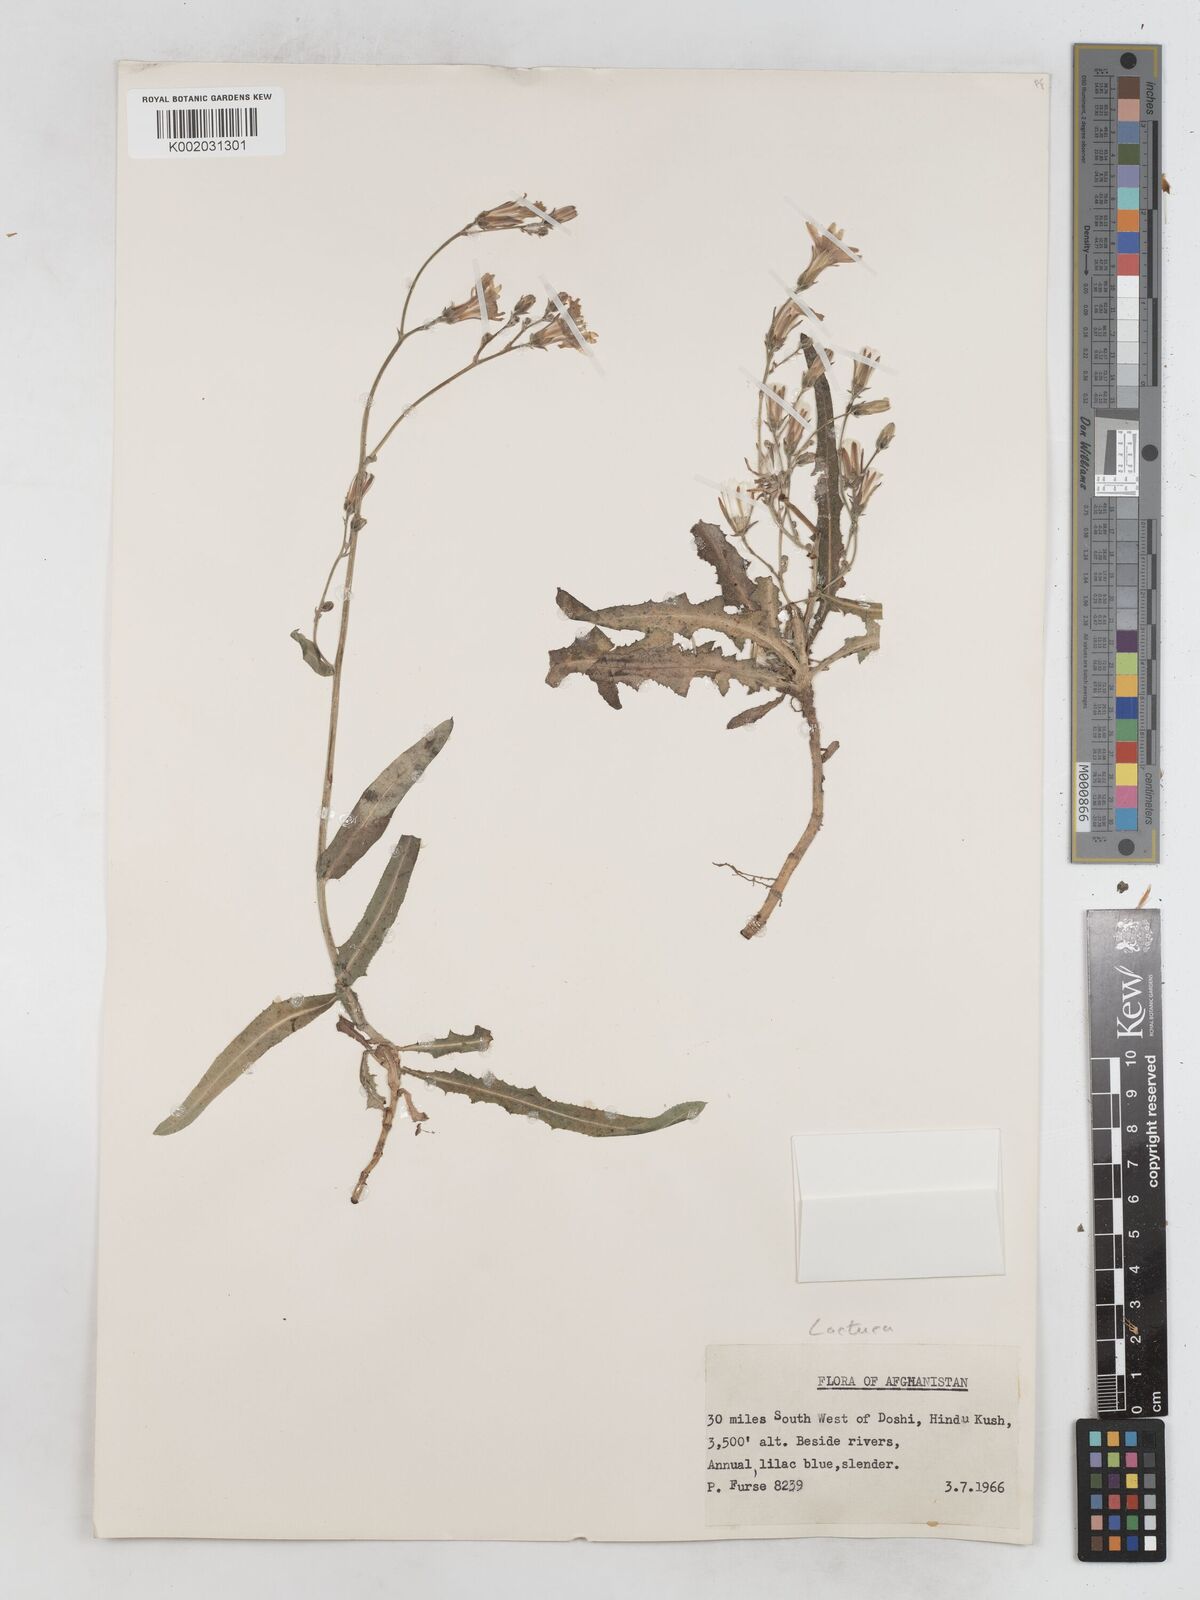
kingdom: Plantae
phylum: Tracheophyta
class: Magnoliopsida
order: Asterales
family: Asteraceae
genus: Lactuca
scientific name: Lactuca tatarica
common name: Blue lettuce
